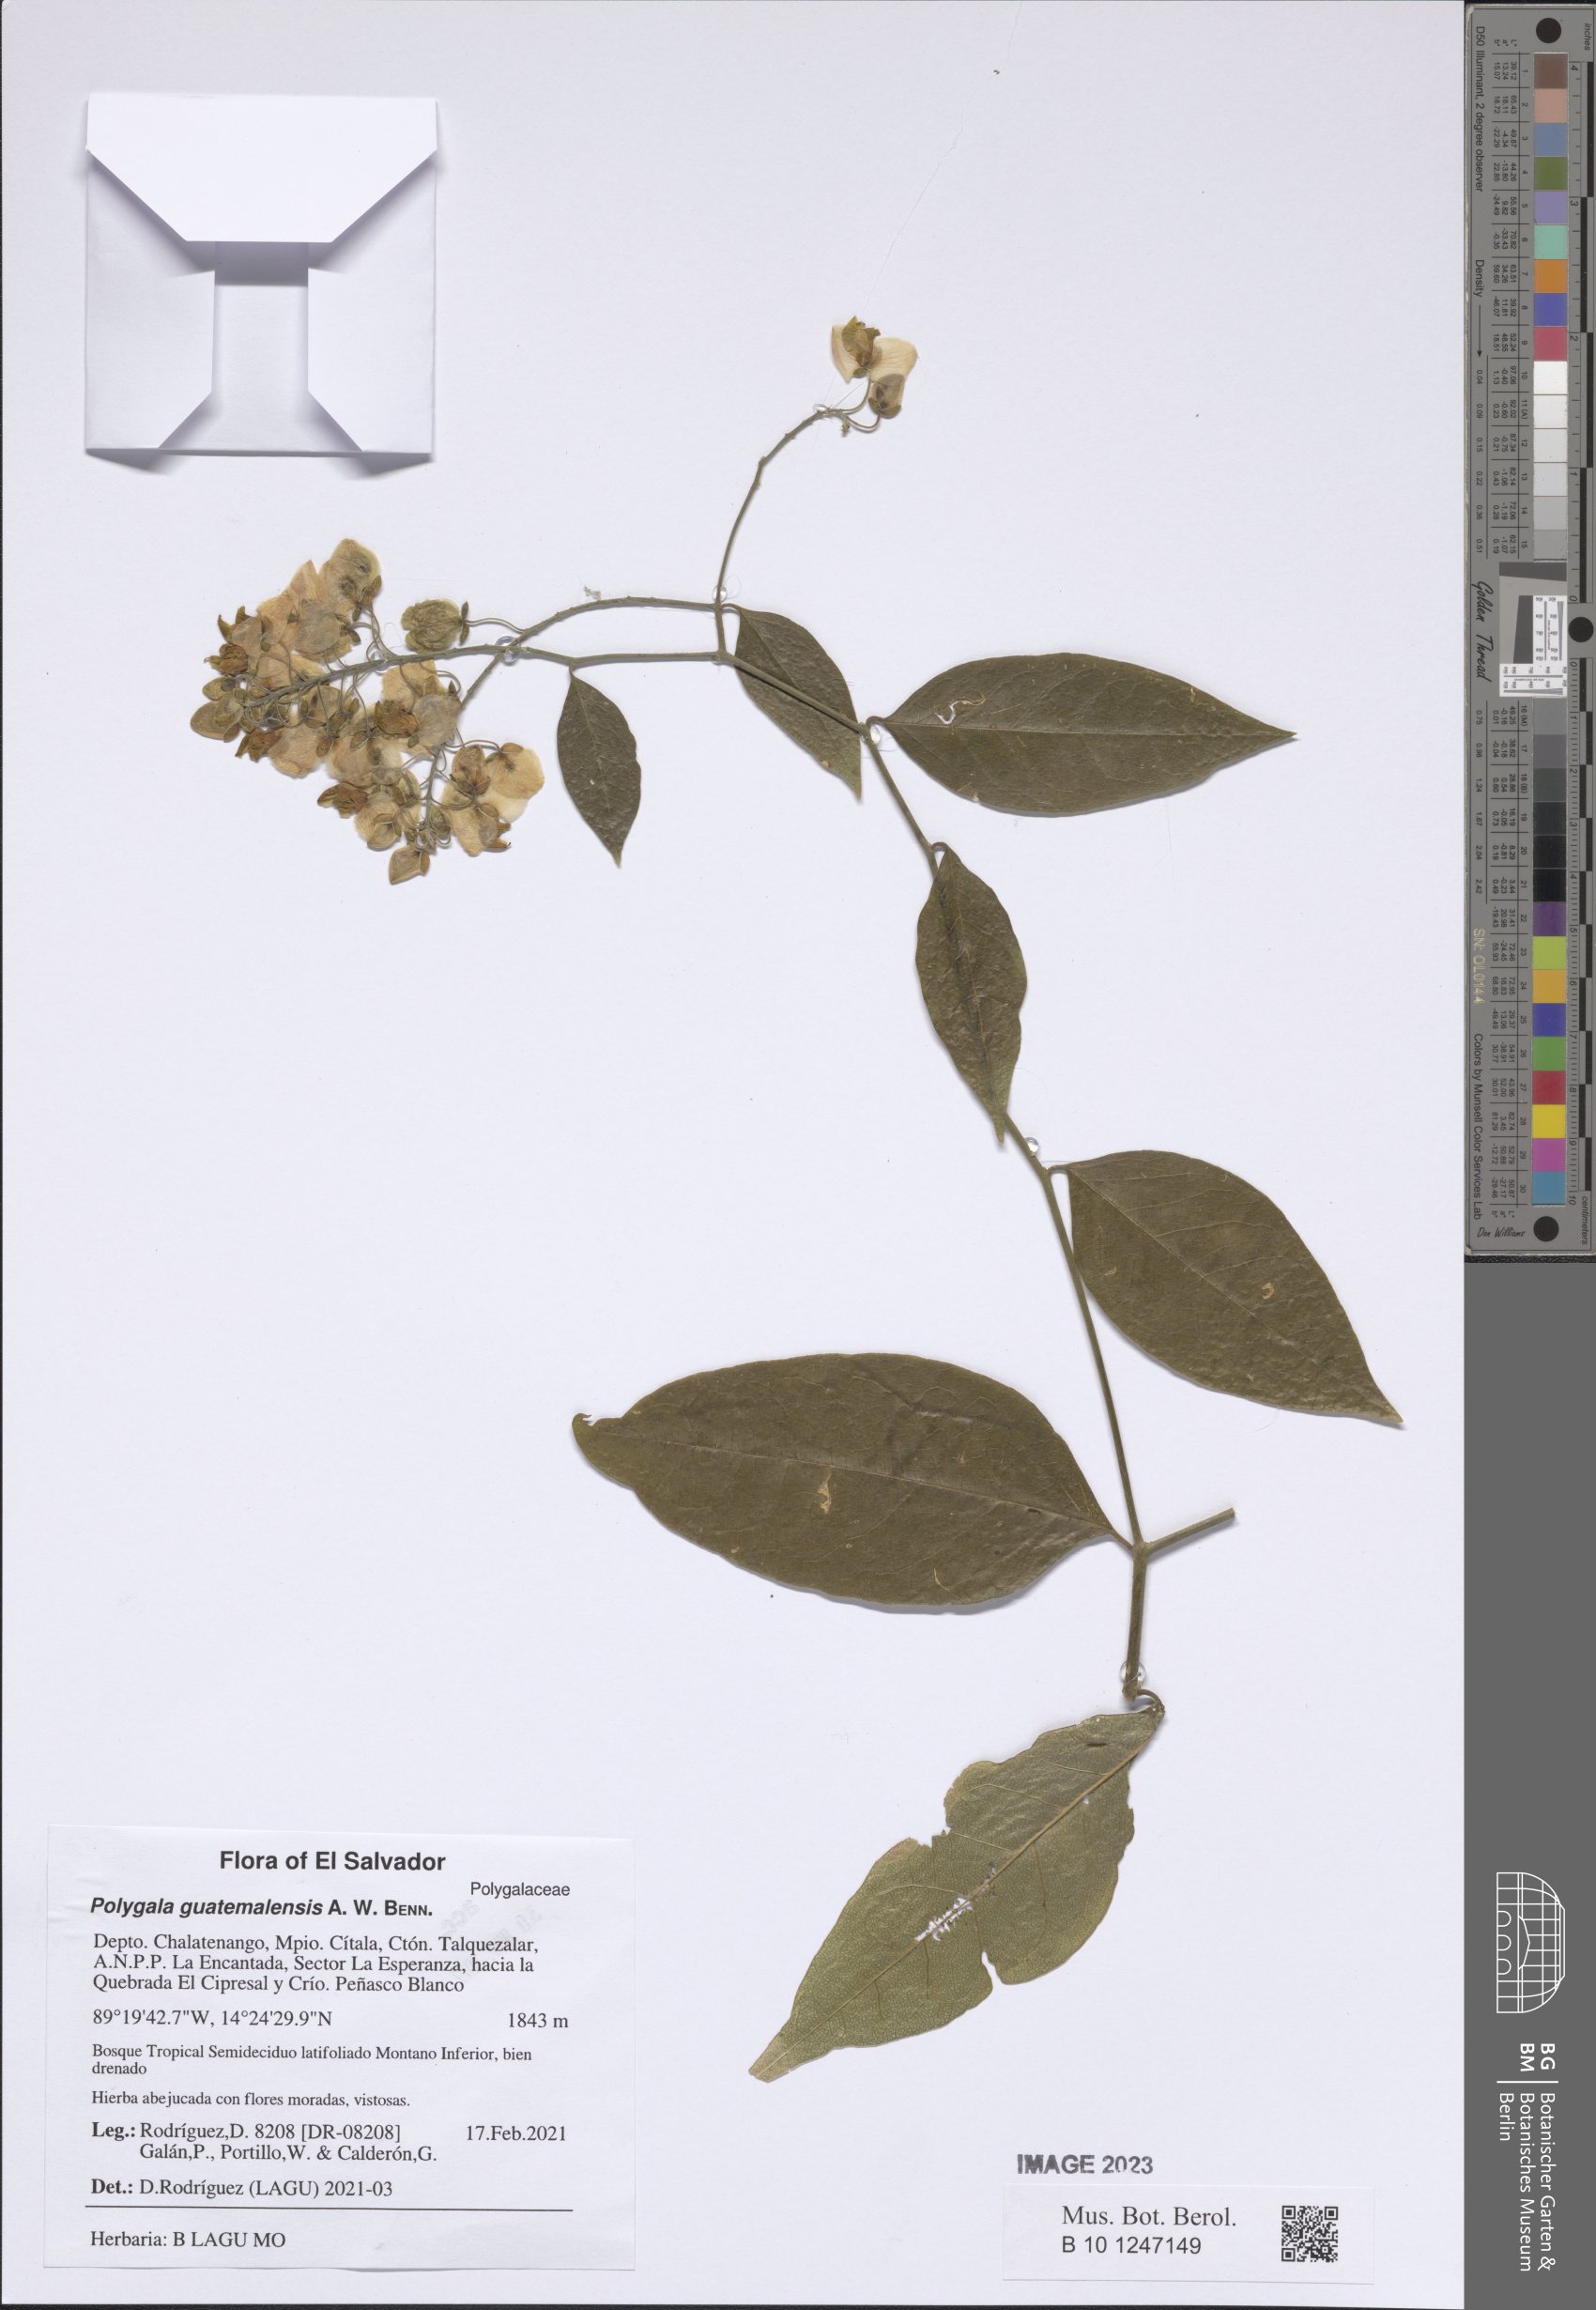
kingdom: Plantae
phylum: Tracheophyta
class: Magnoliopsida
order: Fabales
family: Polygalaceae
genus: Asemeia
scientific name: Asemeia floribunda
